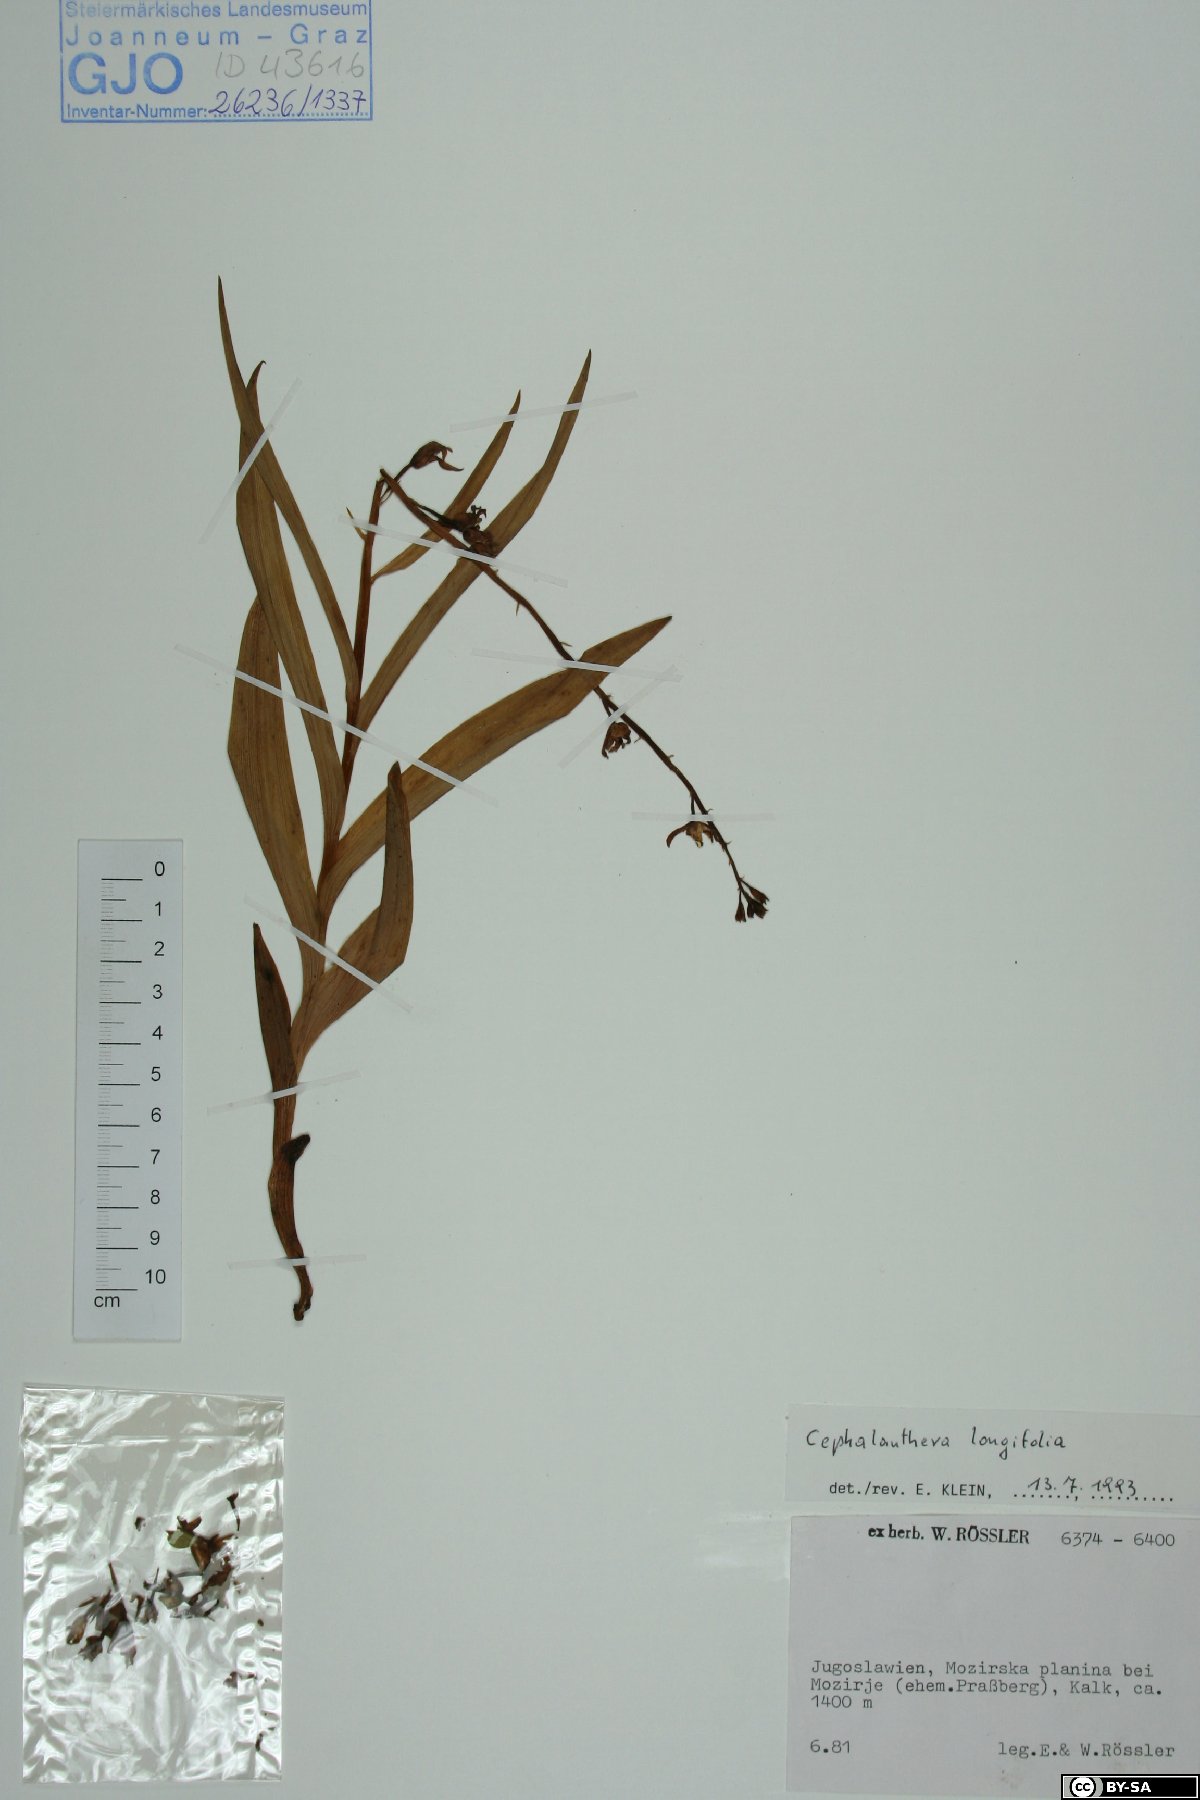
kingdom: Plantae
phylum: Tracheophyta
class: Liliopsida
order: Asparagales
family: Orchidaceae
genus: Cephalanthera
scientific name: Cephalanthera longifolia
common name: Narrow-leaved helleborine
